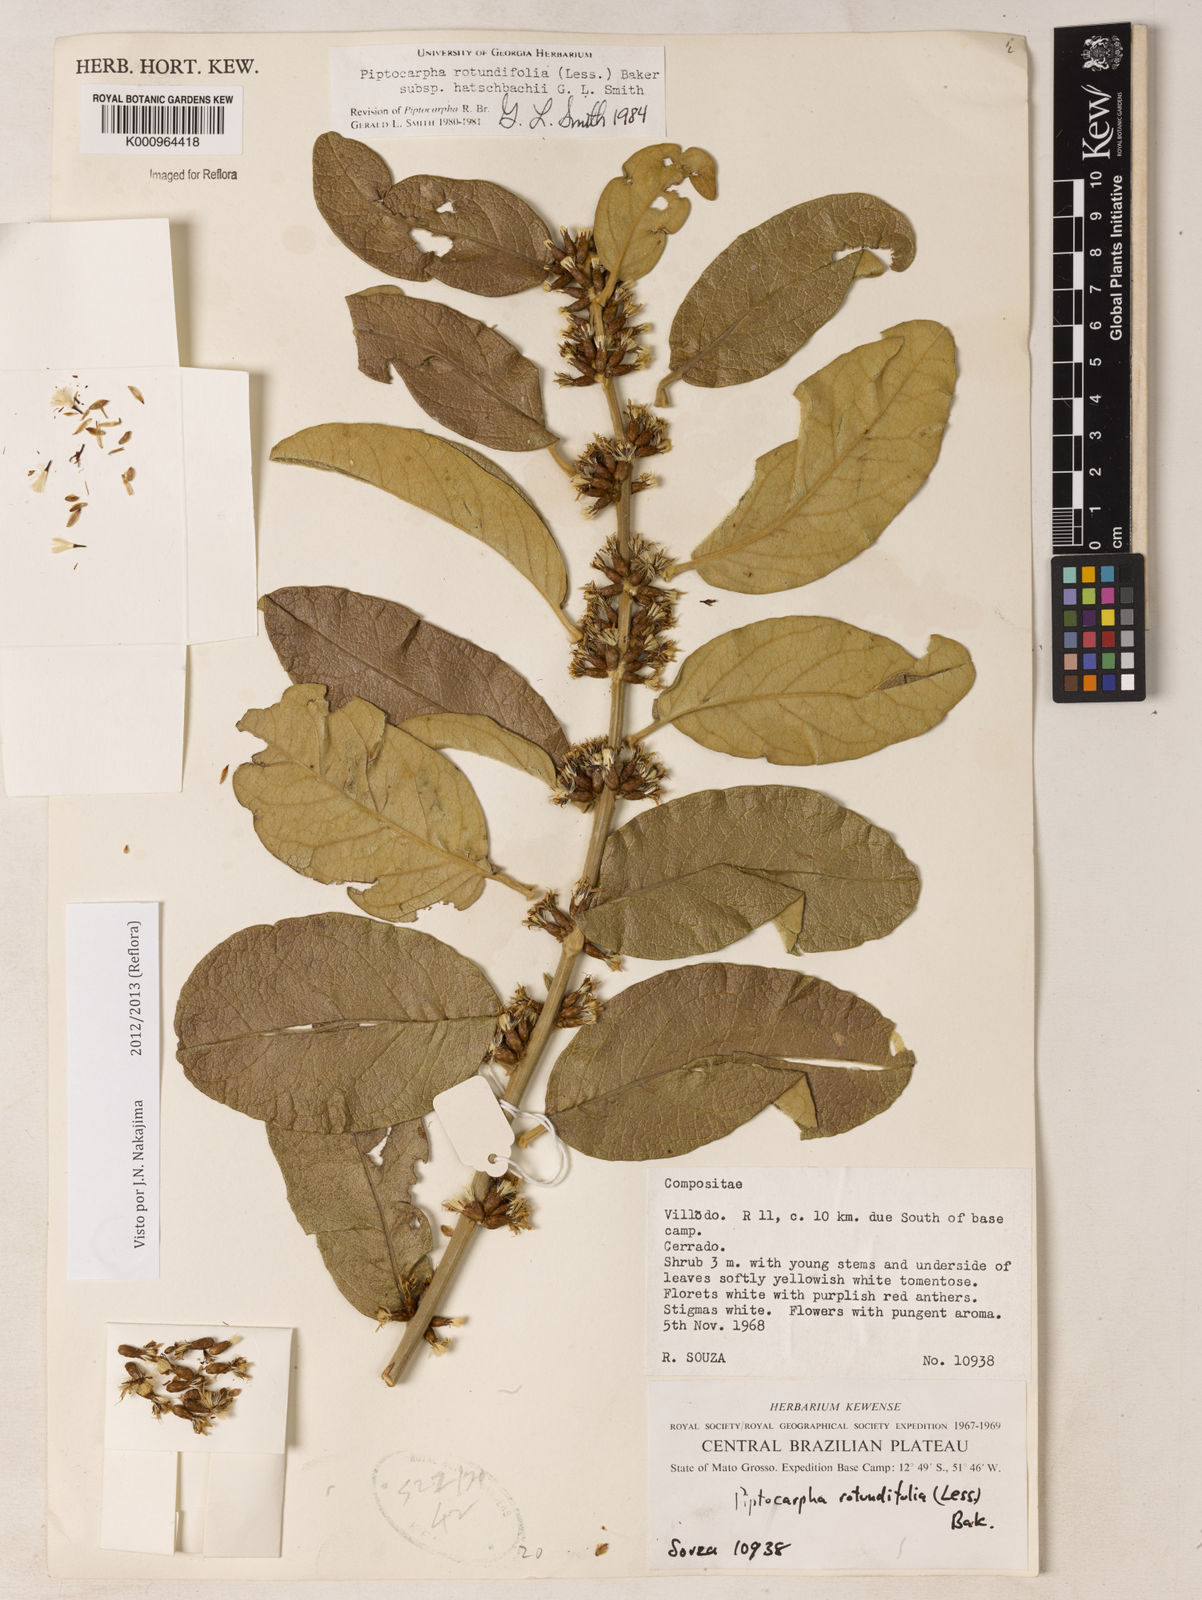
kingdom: Plantae
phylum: Tracheophyta
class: Magnoliopsida
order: Asterales
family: Asteraceae
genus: Piptocarpha
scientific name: Piptocarpha rotundifolia
